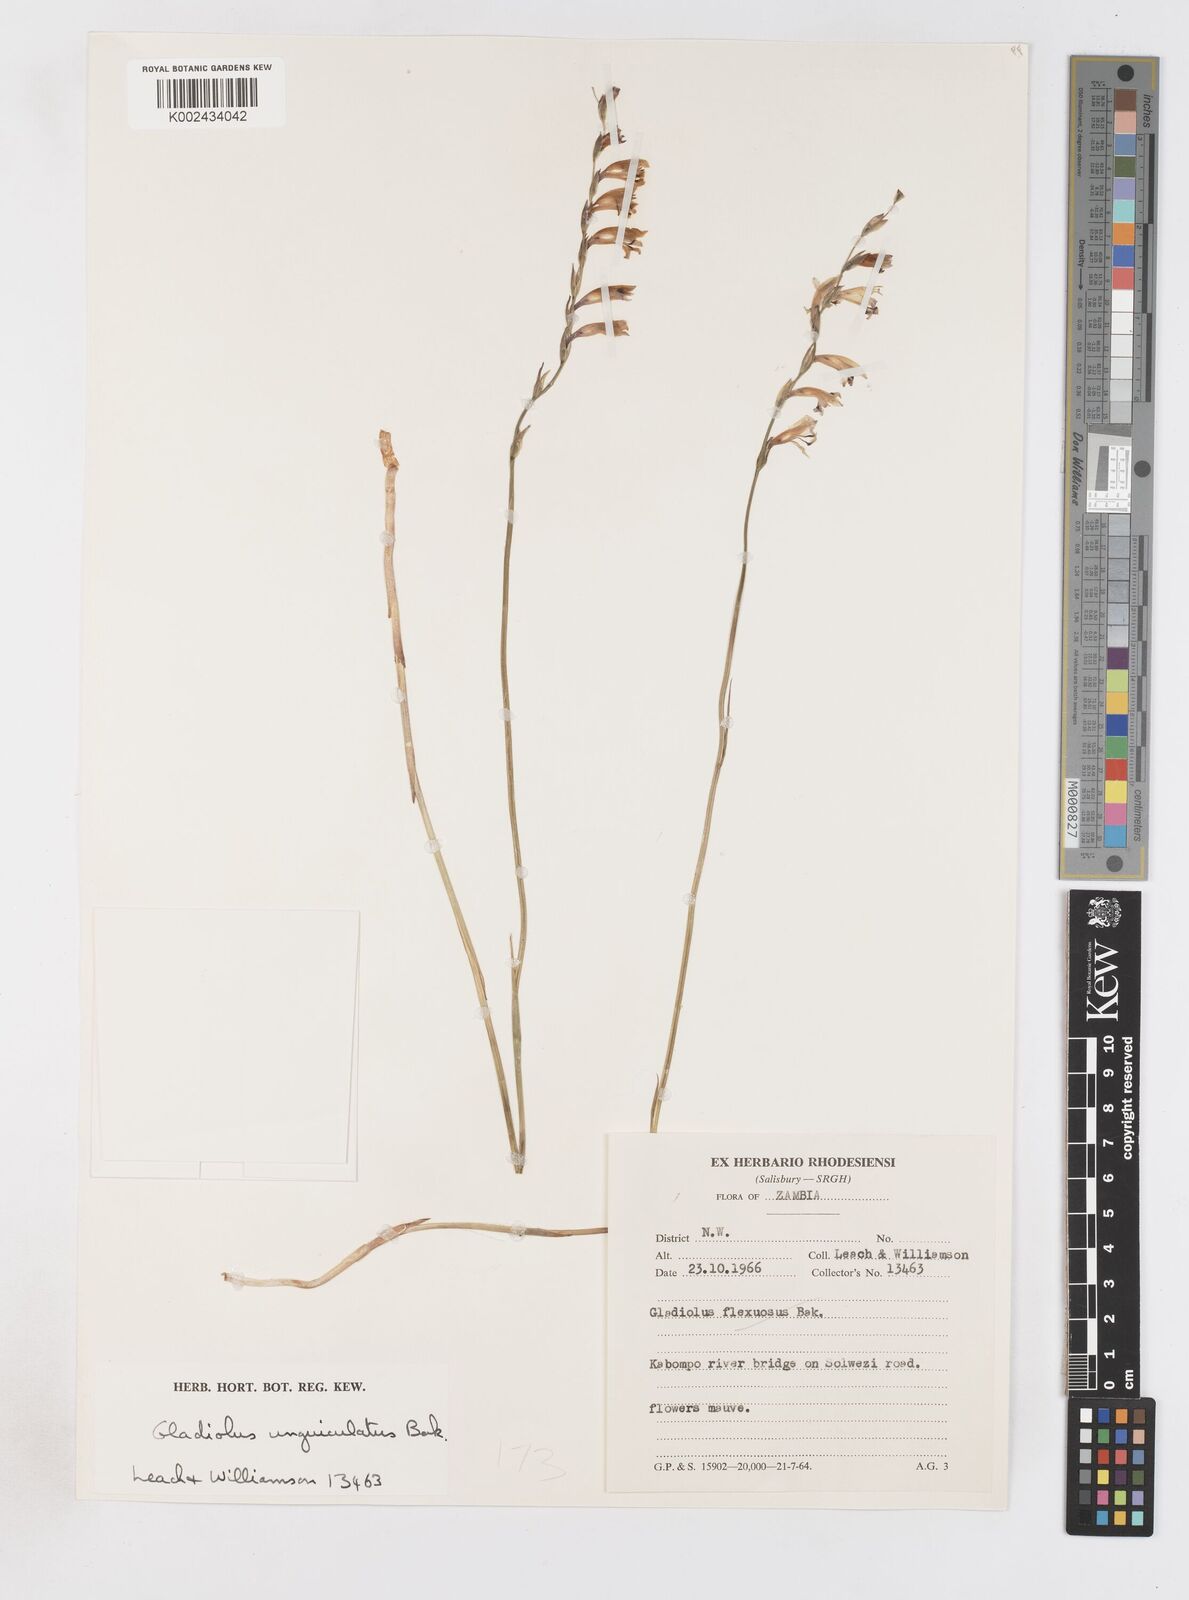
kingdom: Plantae
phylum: Tracheophyta
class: Liliopsida
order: Asparagales
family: Iridaceae
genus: Gladiolus
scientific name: Gladiolus atropurpureus
